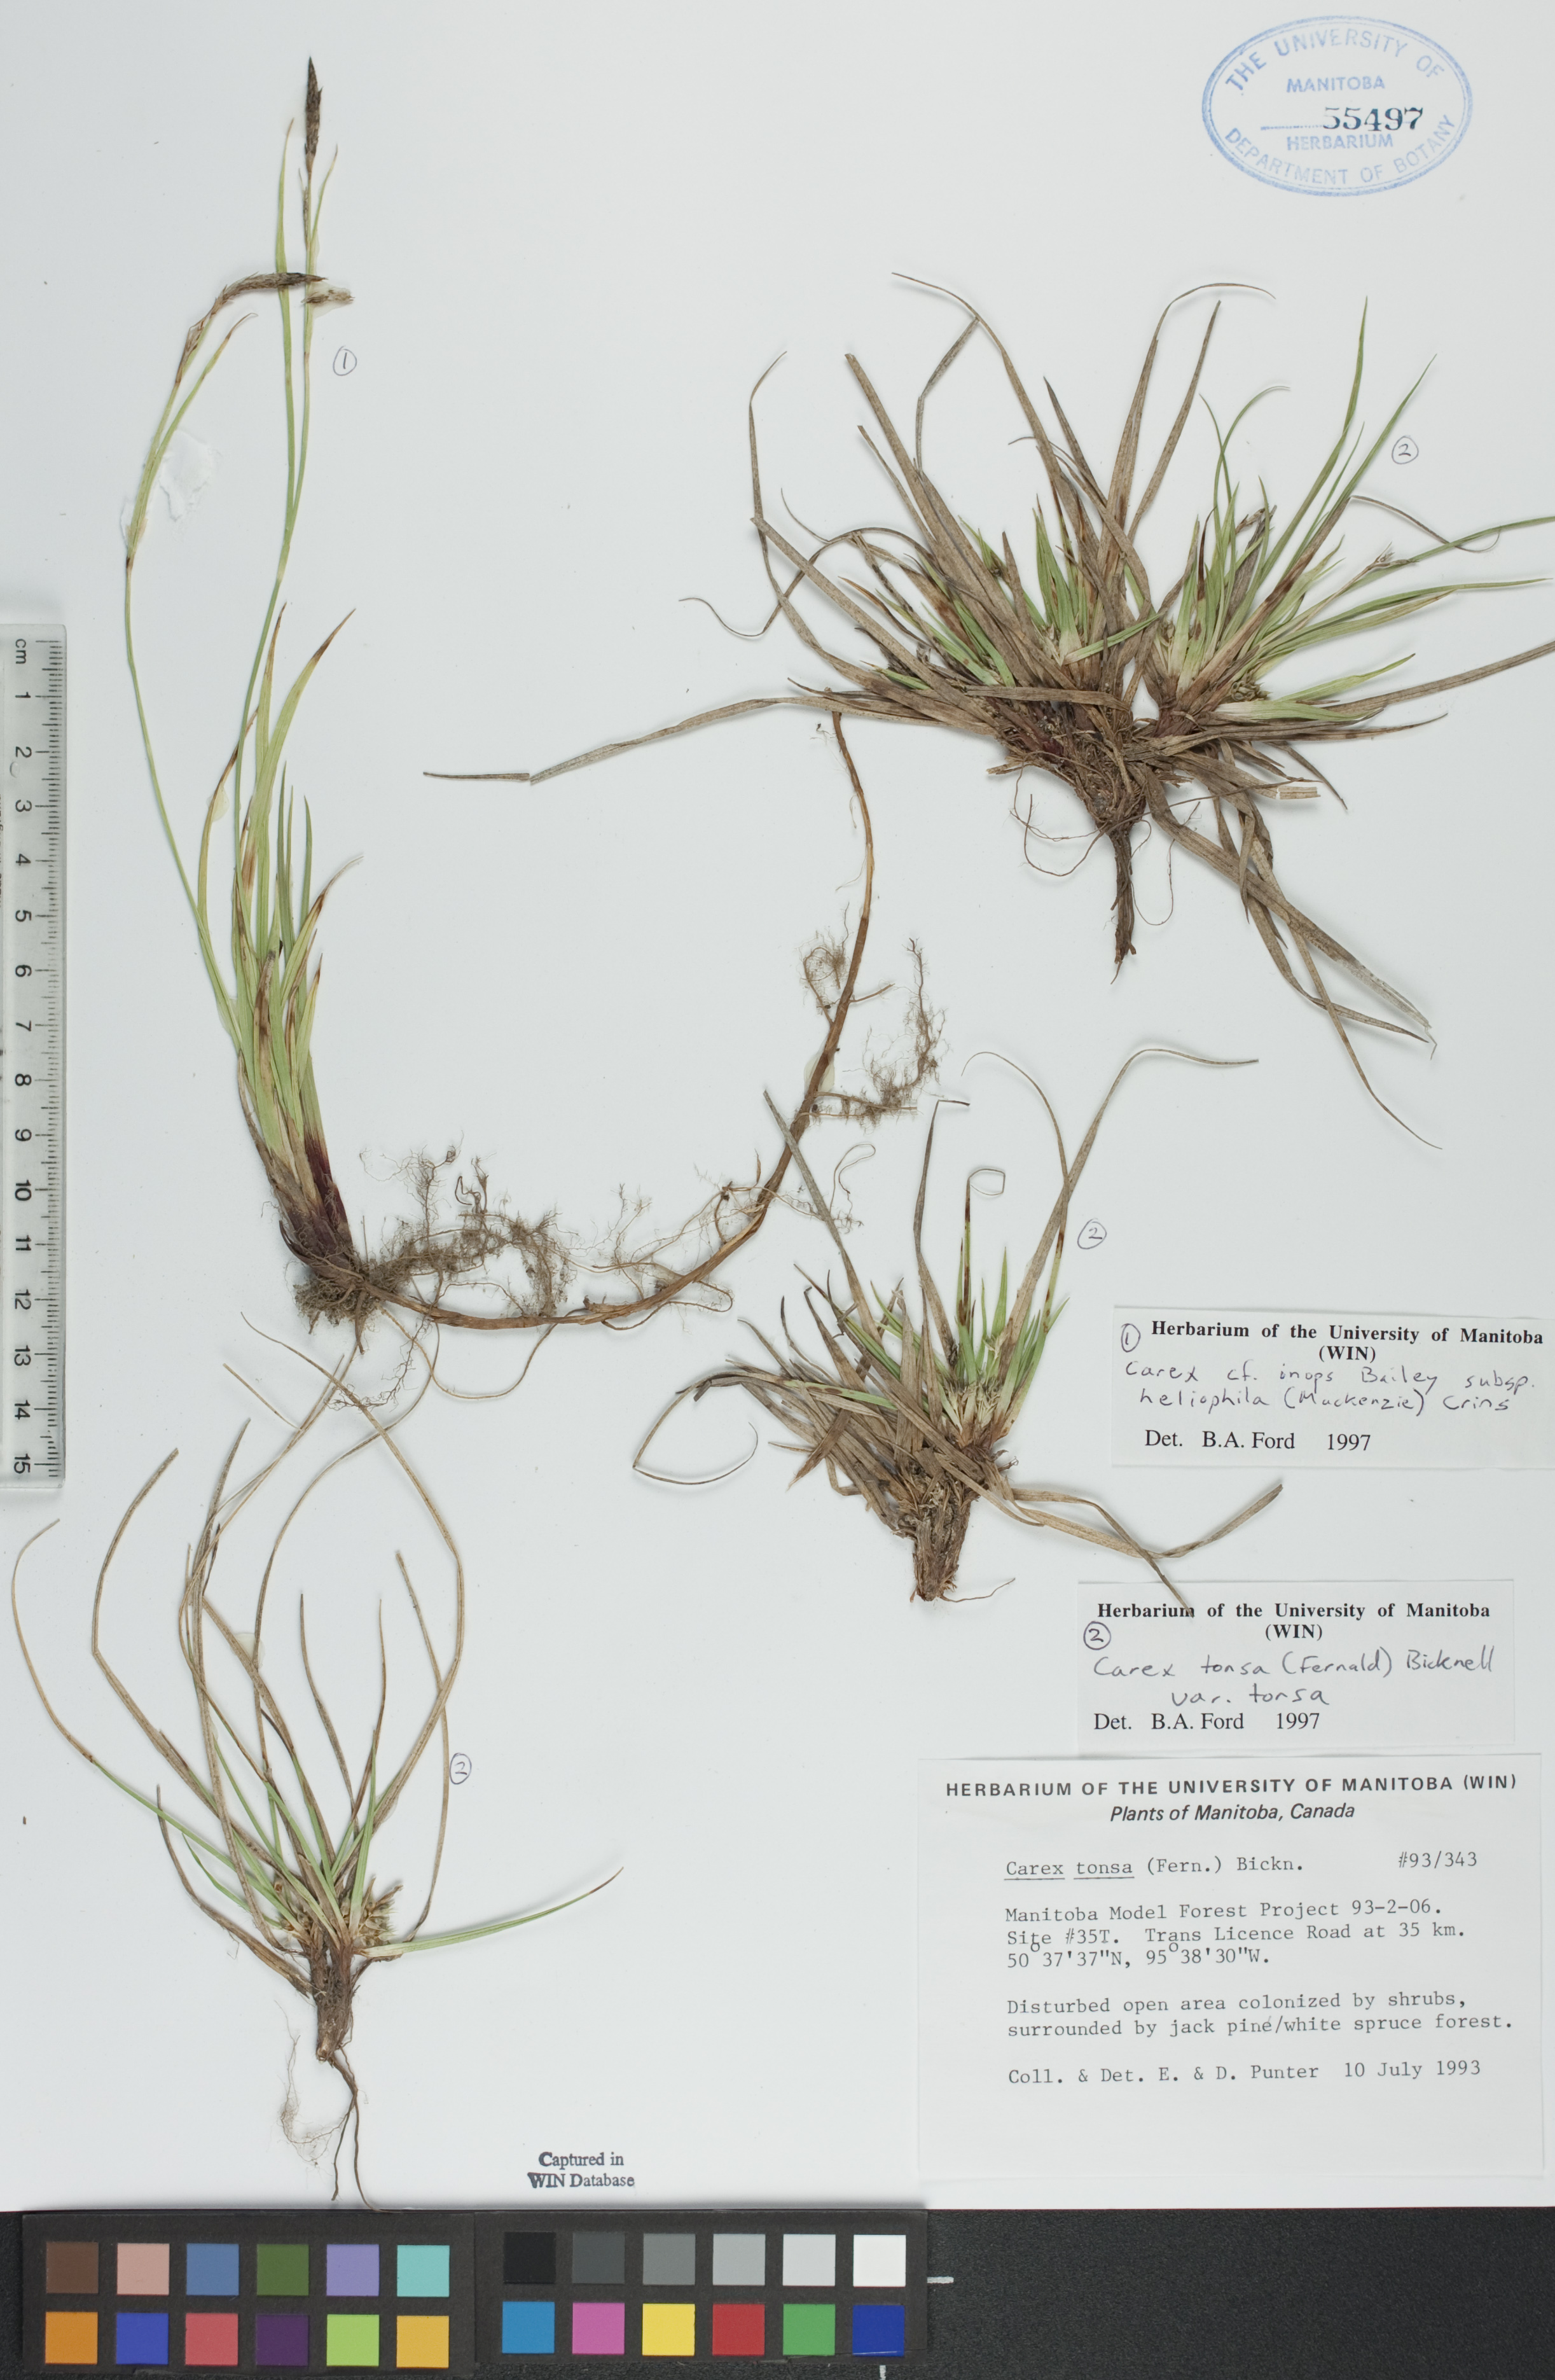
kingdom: Plantae
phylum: Tracheophyta
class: Liliopsida
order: Poales
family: Cyperaceae
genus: Carex
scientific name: Carex tonsa
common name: Bald sedge
